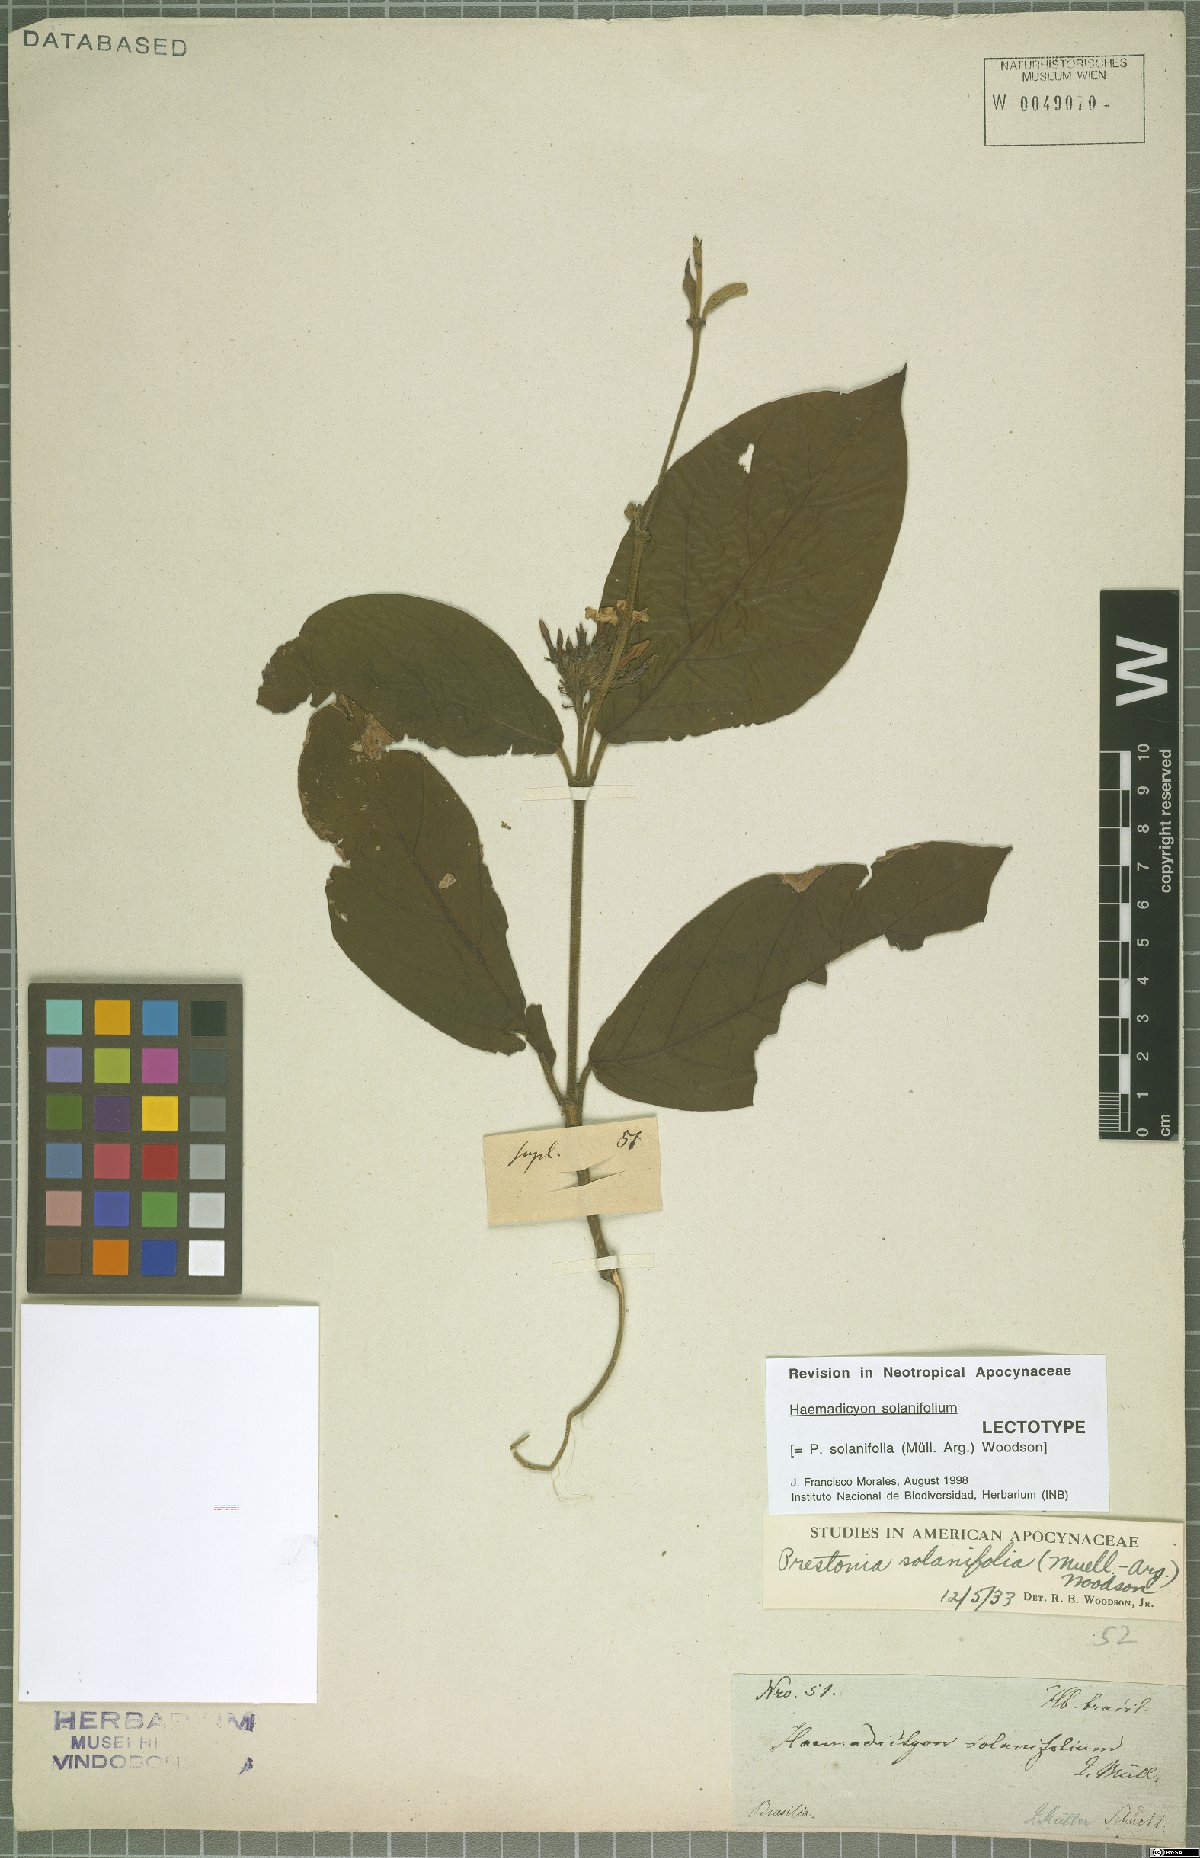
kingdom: Plantae
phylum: Tracheophyta
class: Magnoliopsida
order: Gentianales
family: Apocynaceae
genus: Prestonia
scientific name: Prestonia solanifolia
